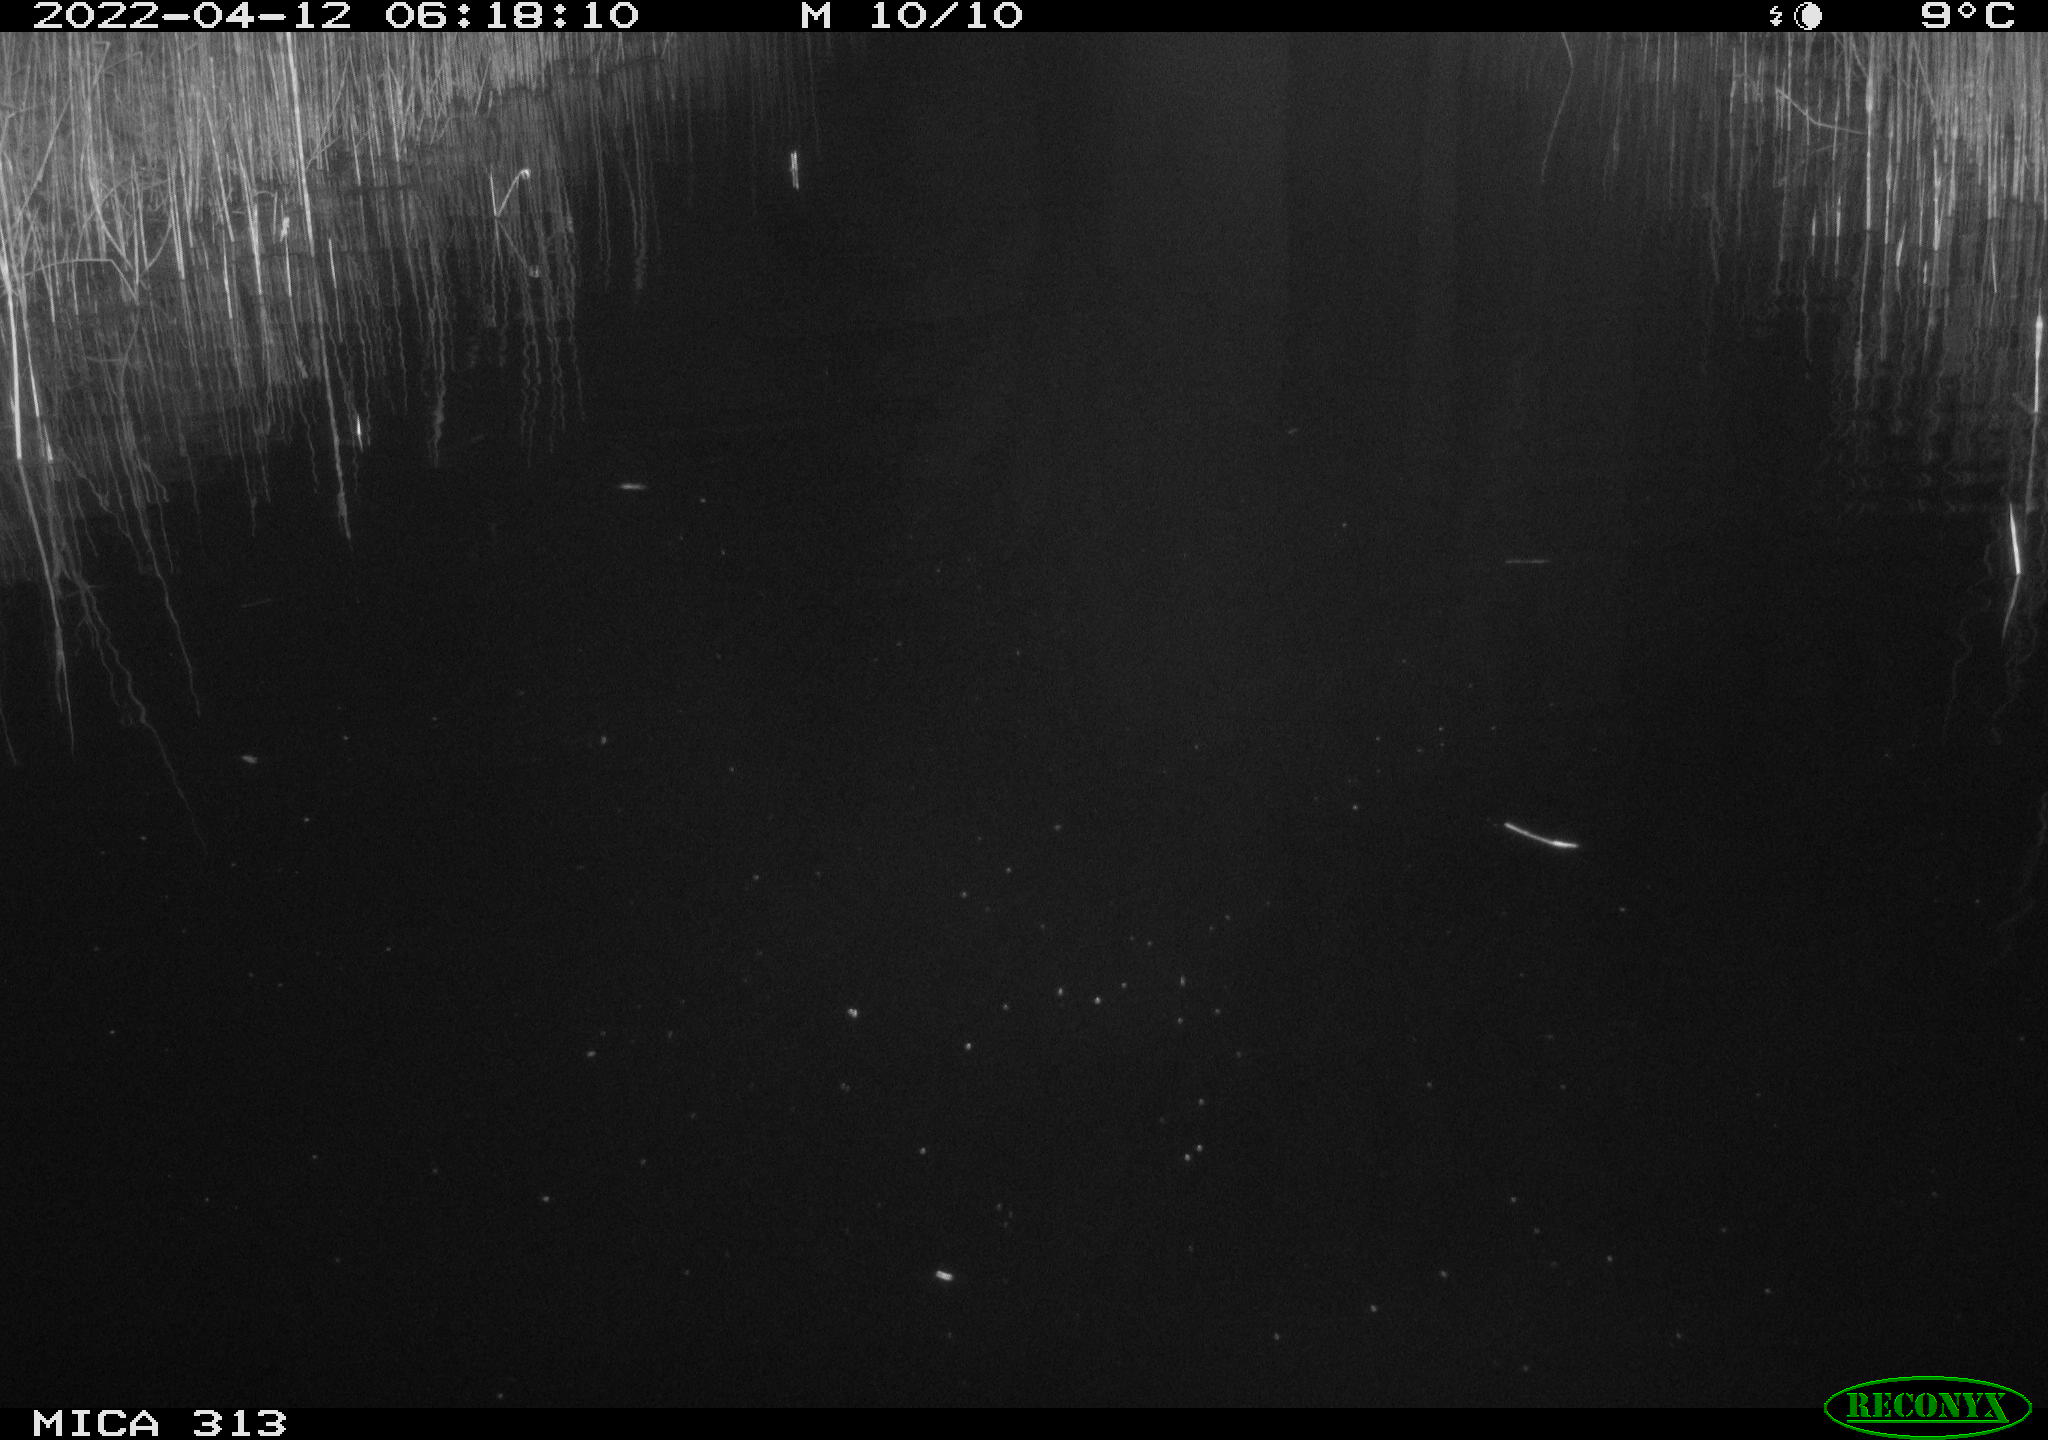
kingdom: Animalia
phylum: Chordata
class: Aves
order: Gruiformes
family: Rallidae
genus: Fulica
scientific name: Fulica atra
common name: Eurasian coot
